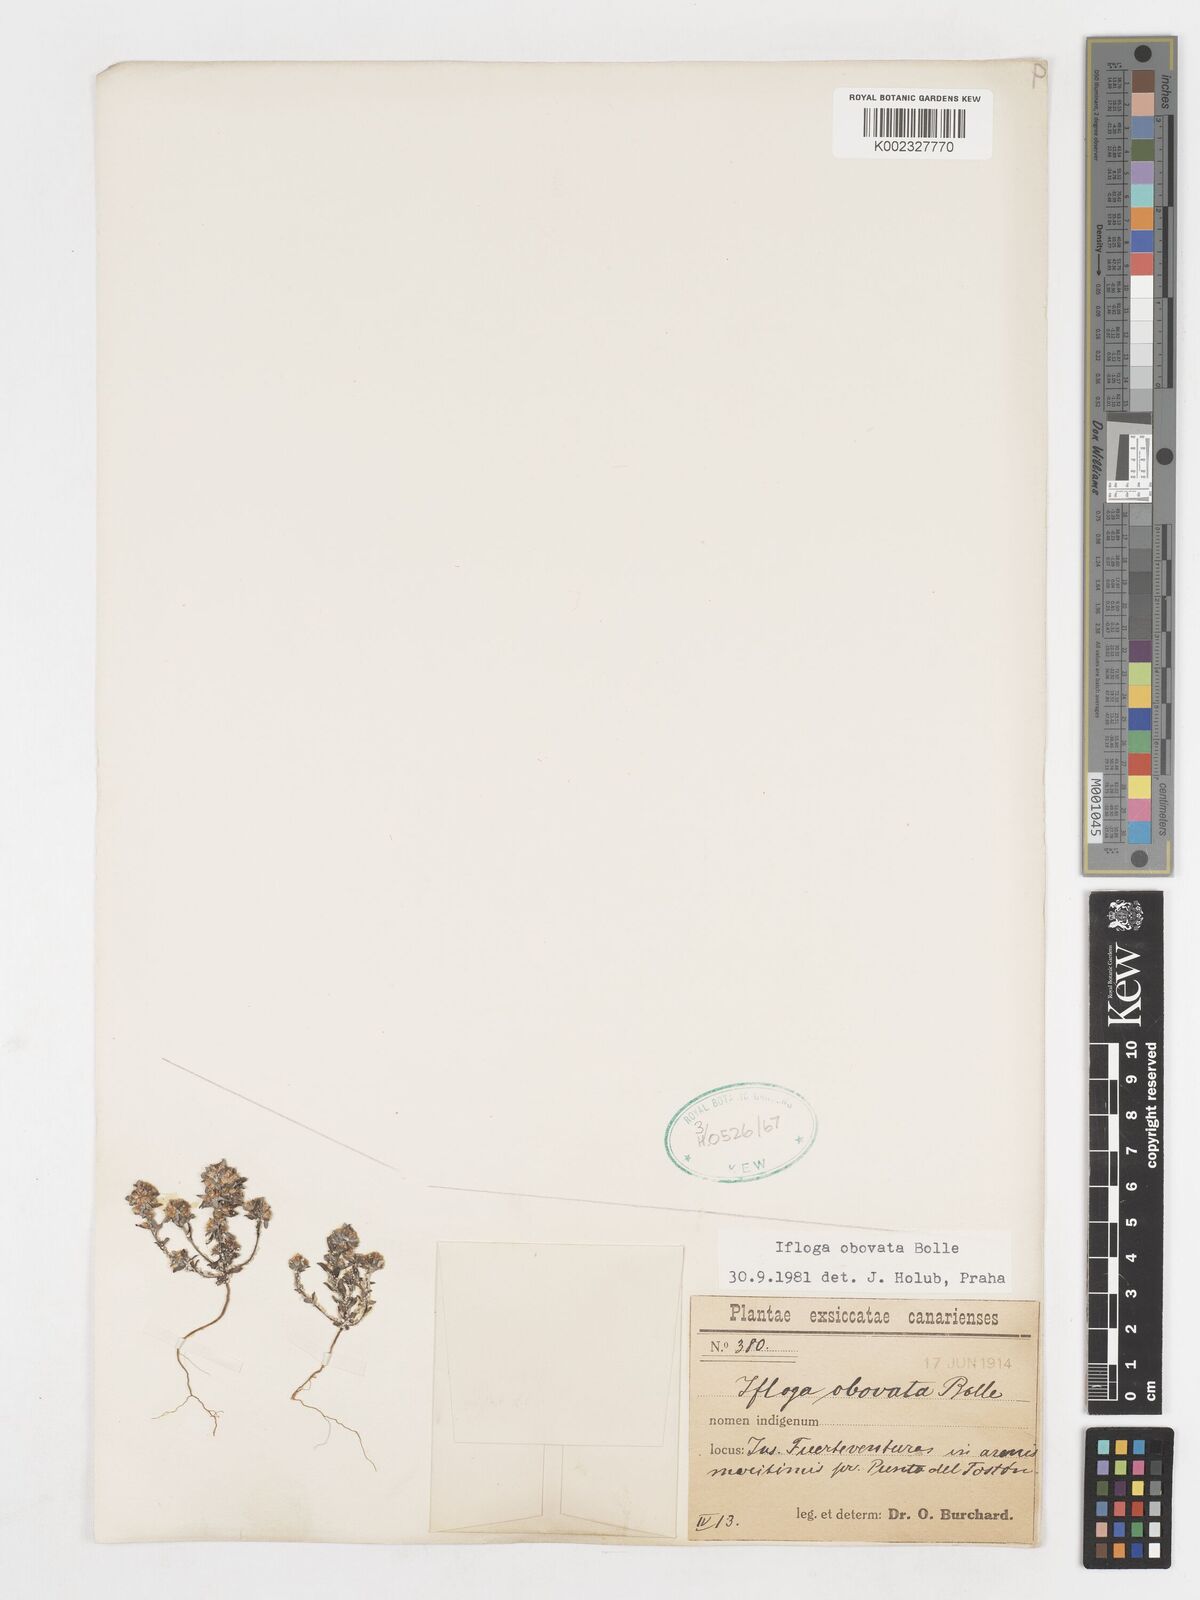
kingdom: Plantae
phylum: Tracheophyta
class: Magnoliopsida
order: Asterales
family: Asteraceae
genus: Ifloga
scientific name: Ifloga obovata
